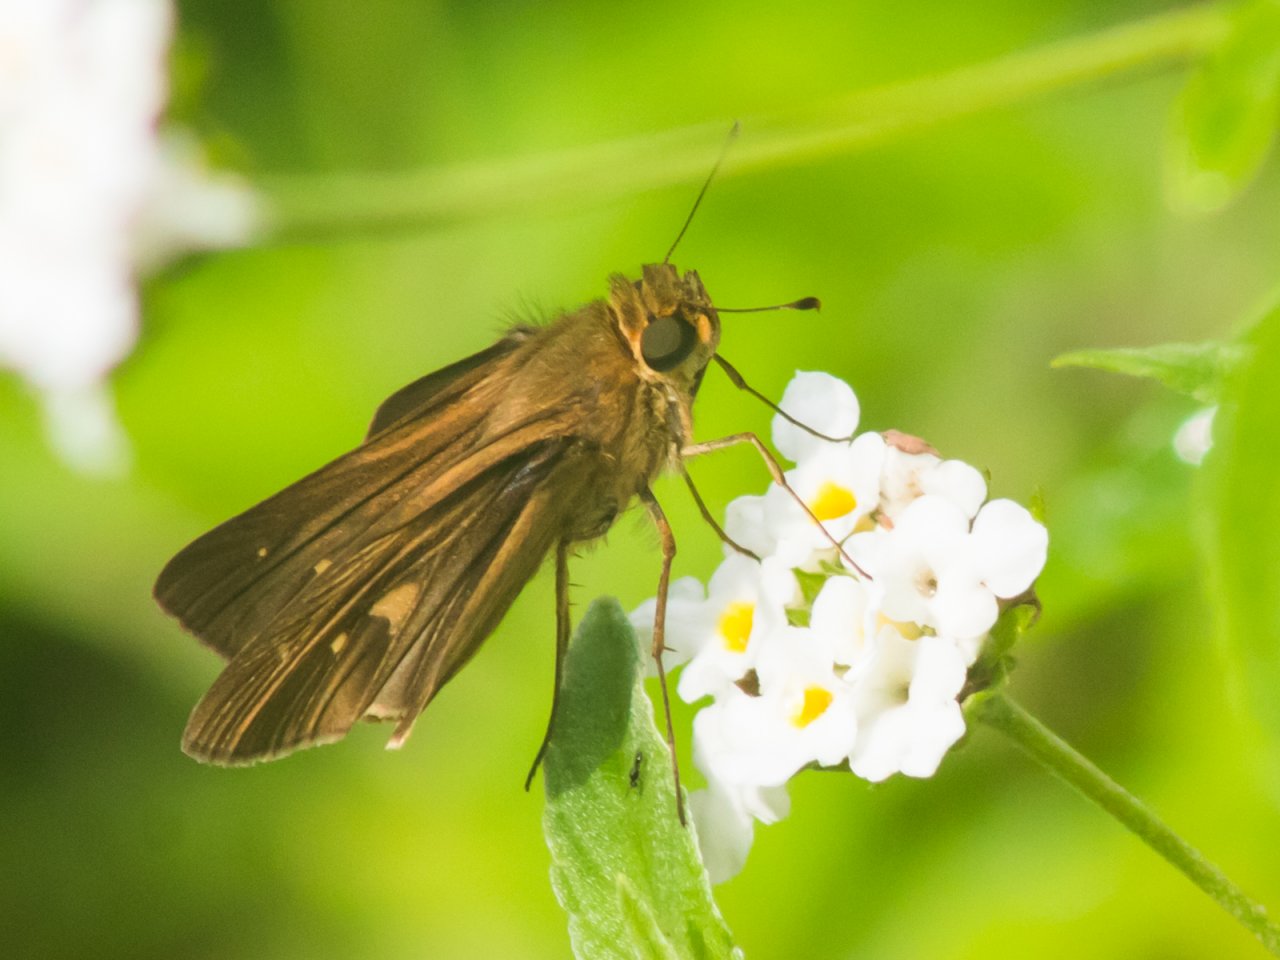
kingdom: Animalia
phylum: Arthropoda
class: Insecta
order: Lepidoptera
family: Hesperiidae
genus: Panoquina
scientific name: Panoquina ocola
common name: Ocola Skipper
